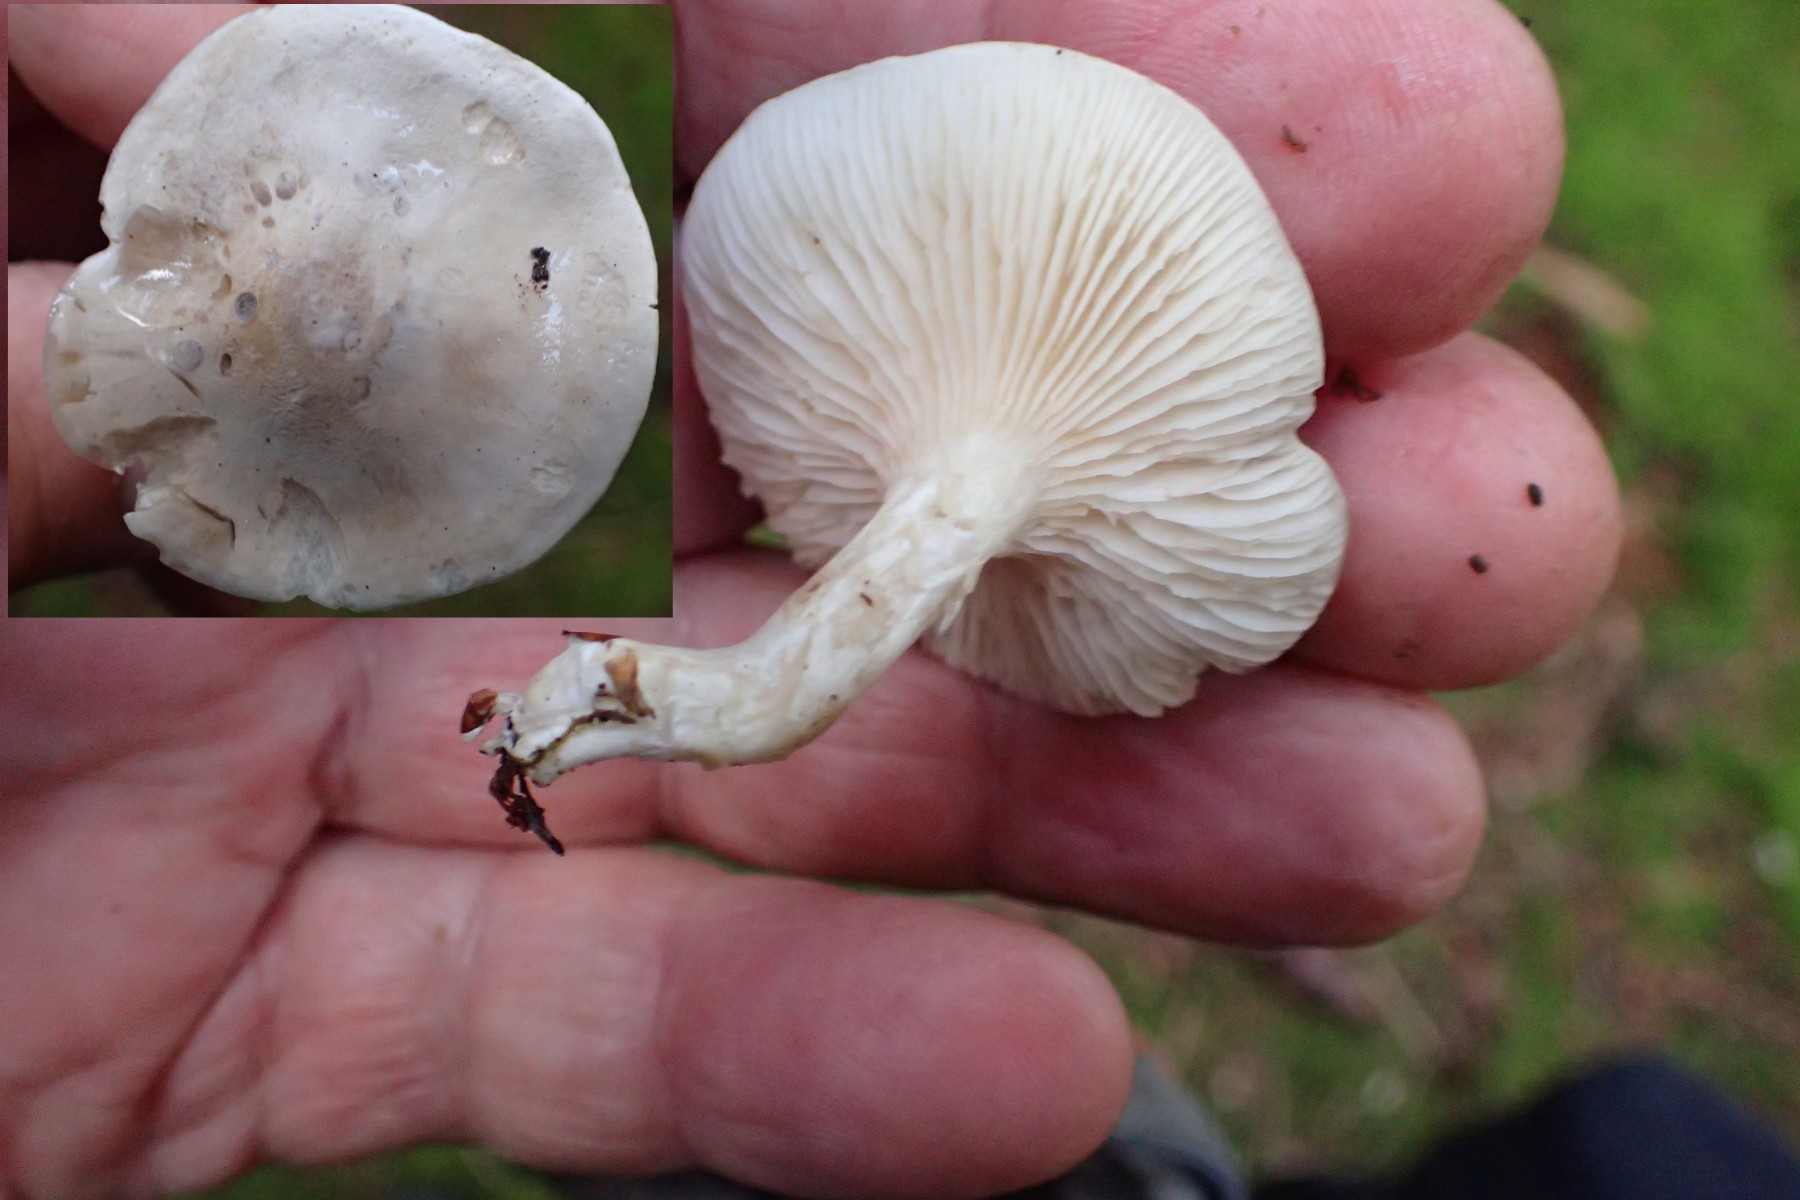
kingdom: Fungi
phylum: Basidiomycota
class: Agaricomycetes
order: Agaricales
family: Entolomataceae
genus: Clitopilus
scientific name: Clitopilus prunulus
